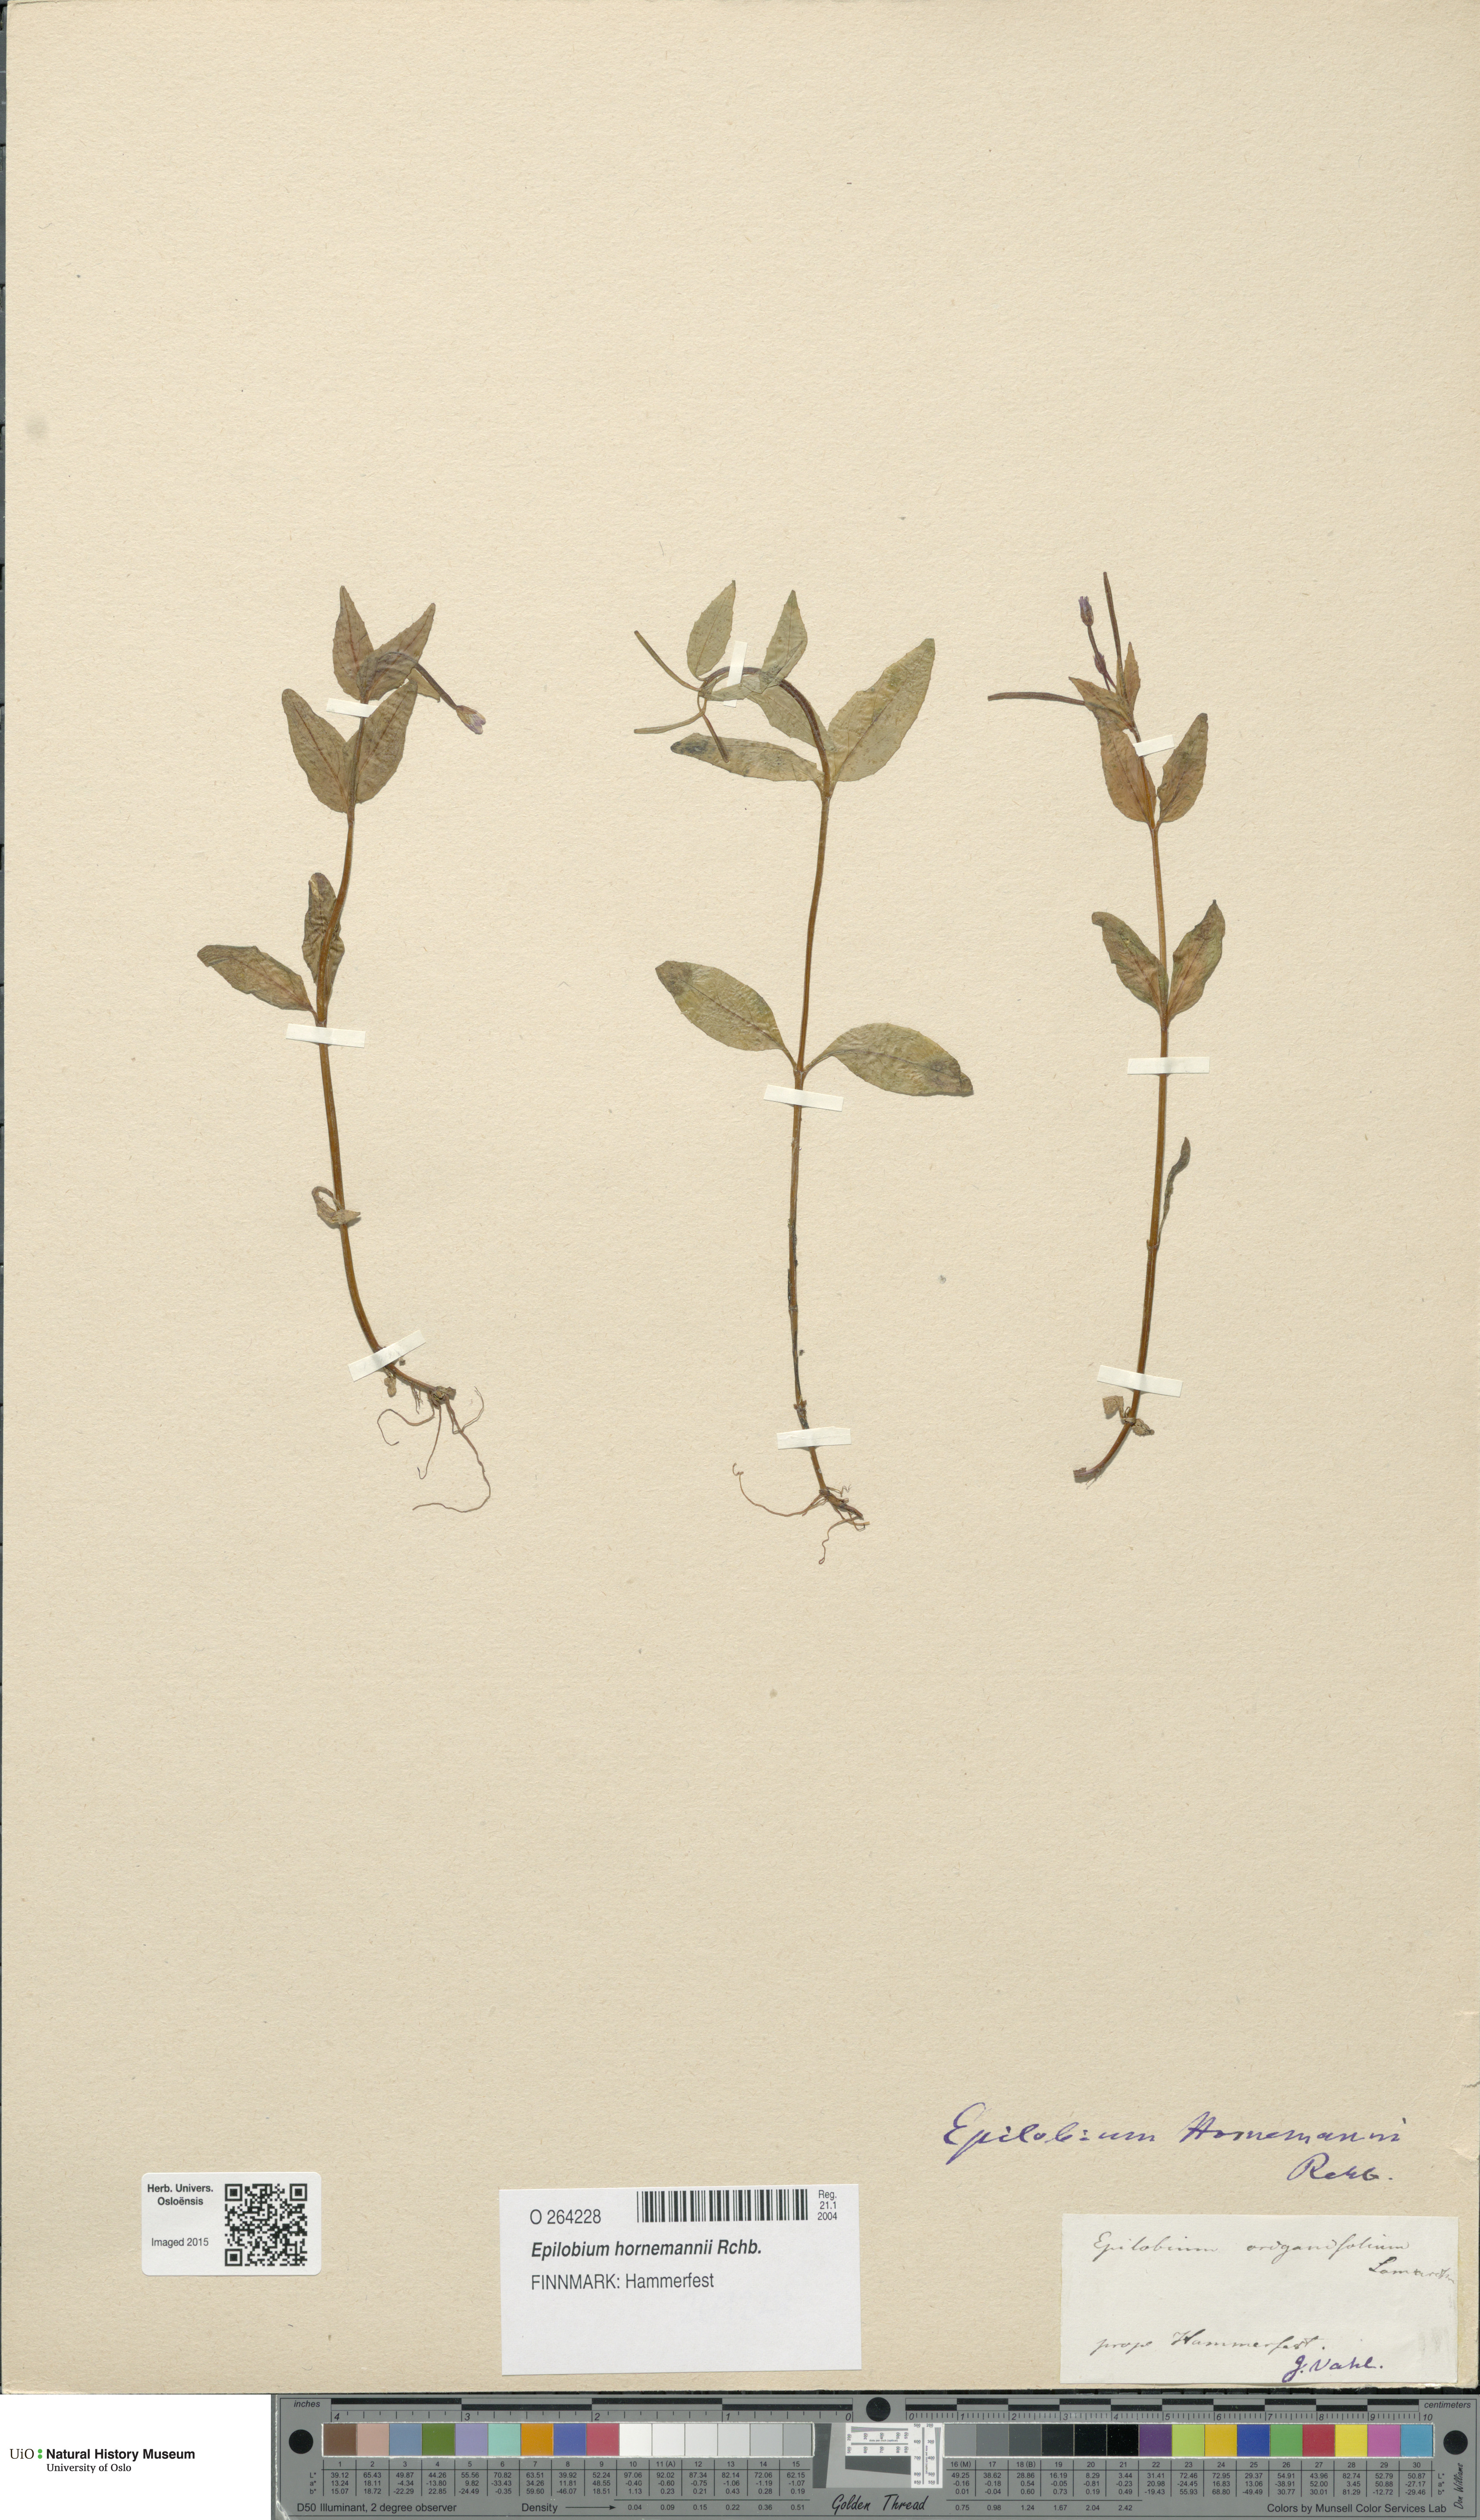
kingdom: Plantae
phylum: Tracheophyta
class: Magnoliopsida
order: Myrtales
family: Onagraceae
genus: Epilobium
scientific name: Epilobium hornemannii
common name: Hornemann's willowherb
